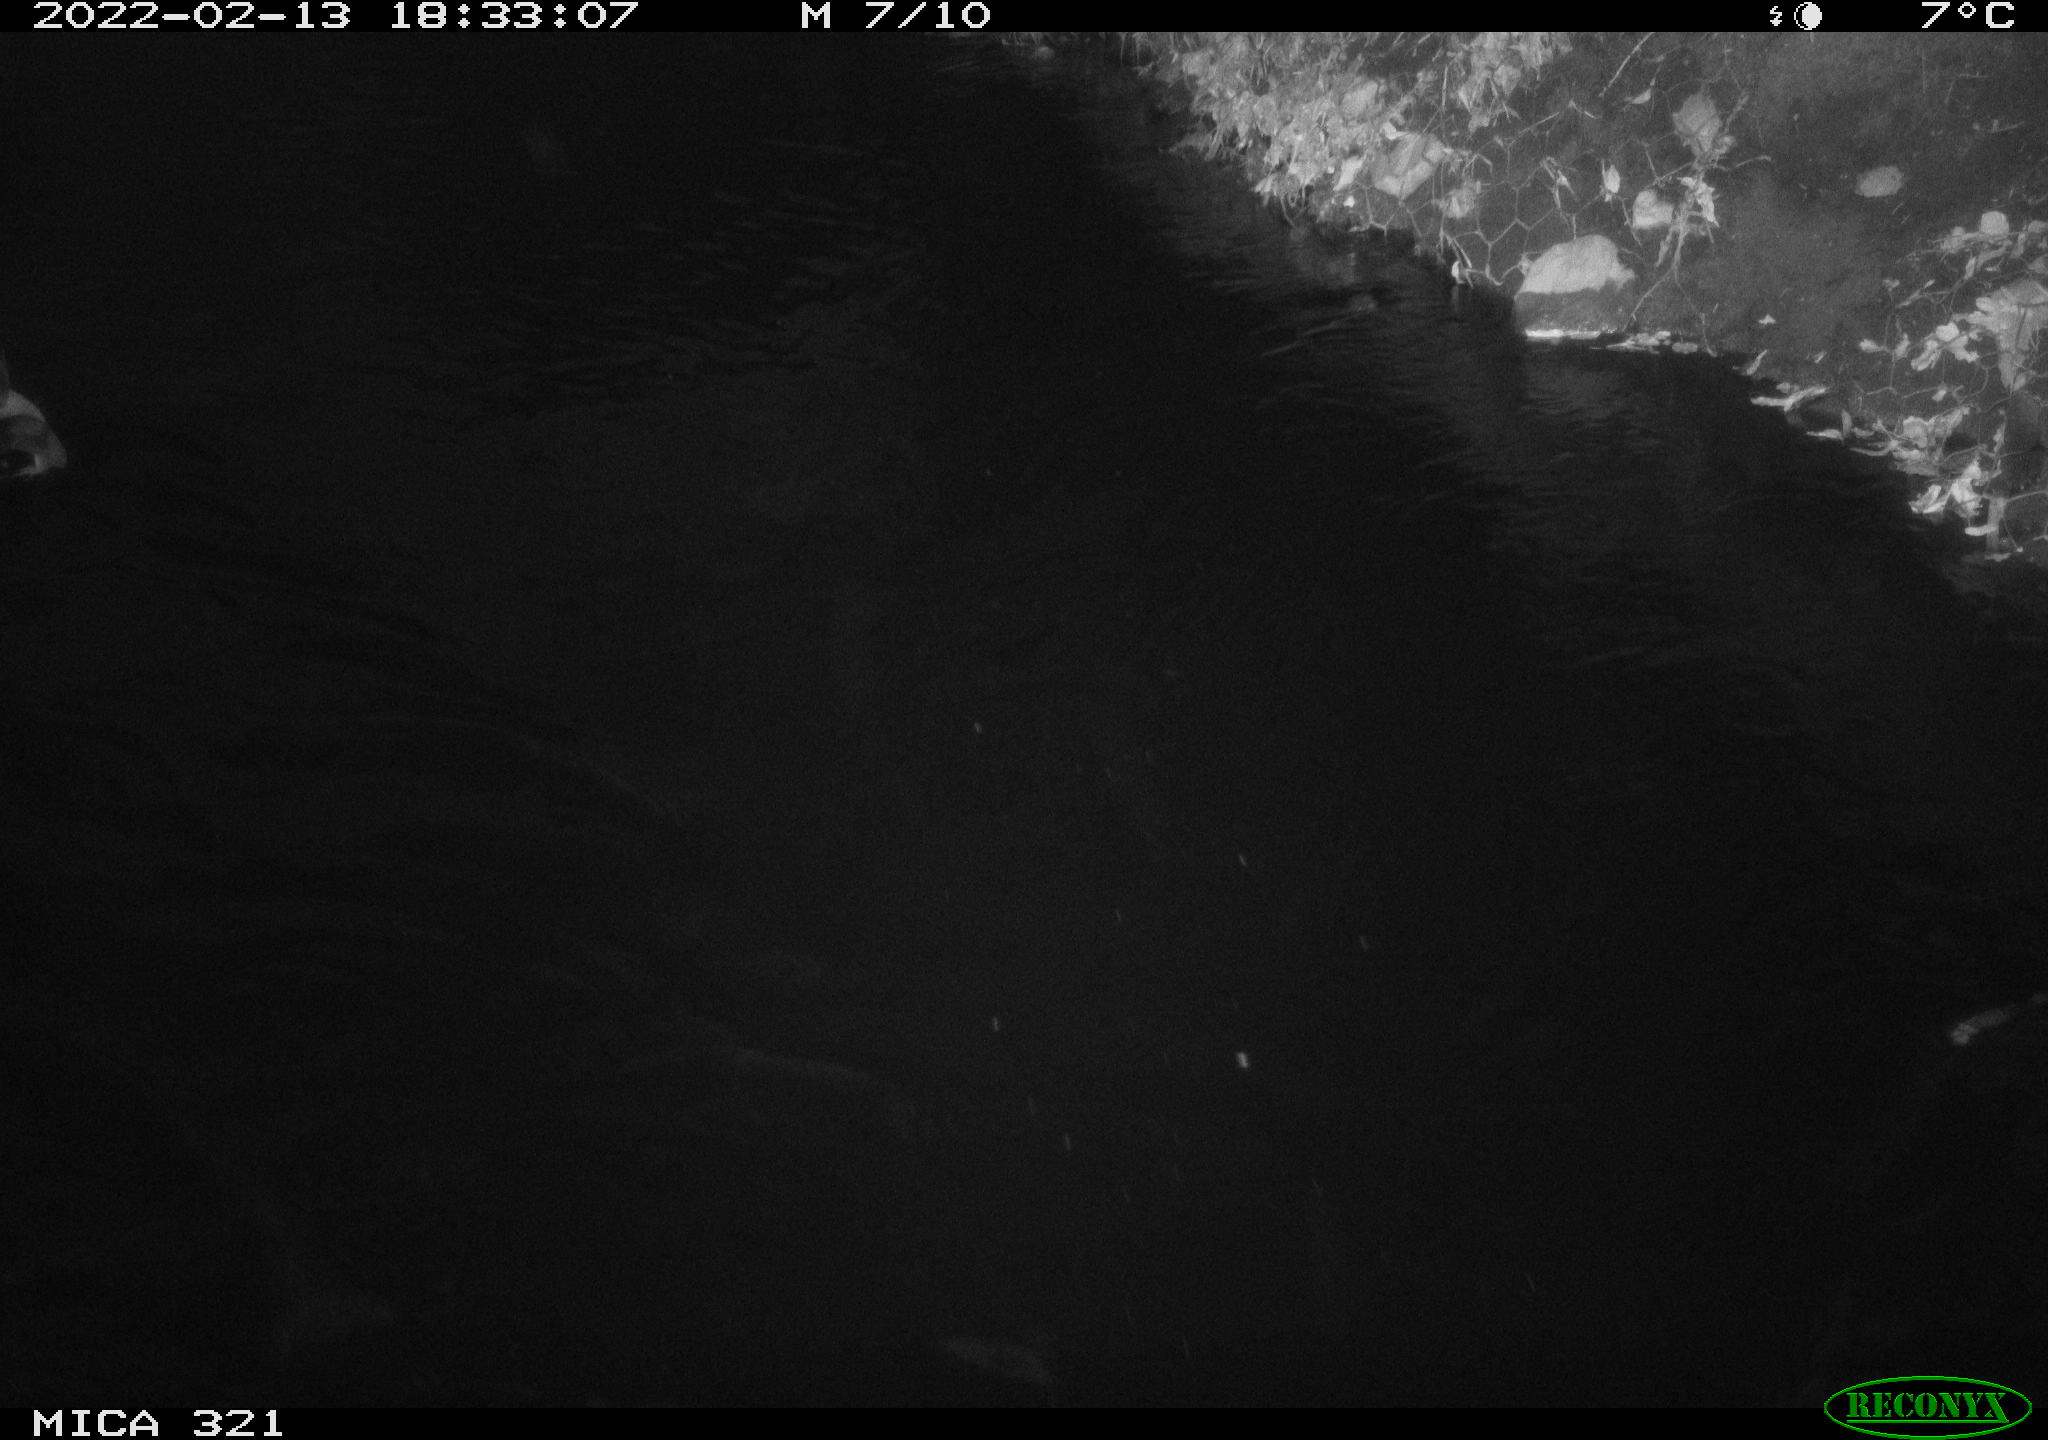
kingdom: Animalia
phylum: Chordata
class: Aves
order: Anseriformes
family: Anatidae
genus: Anas
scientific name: Anas platyrhynchos
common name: Mallard
